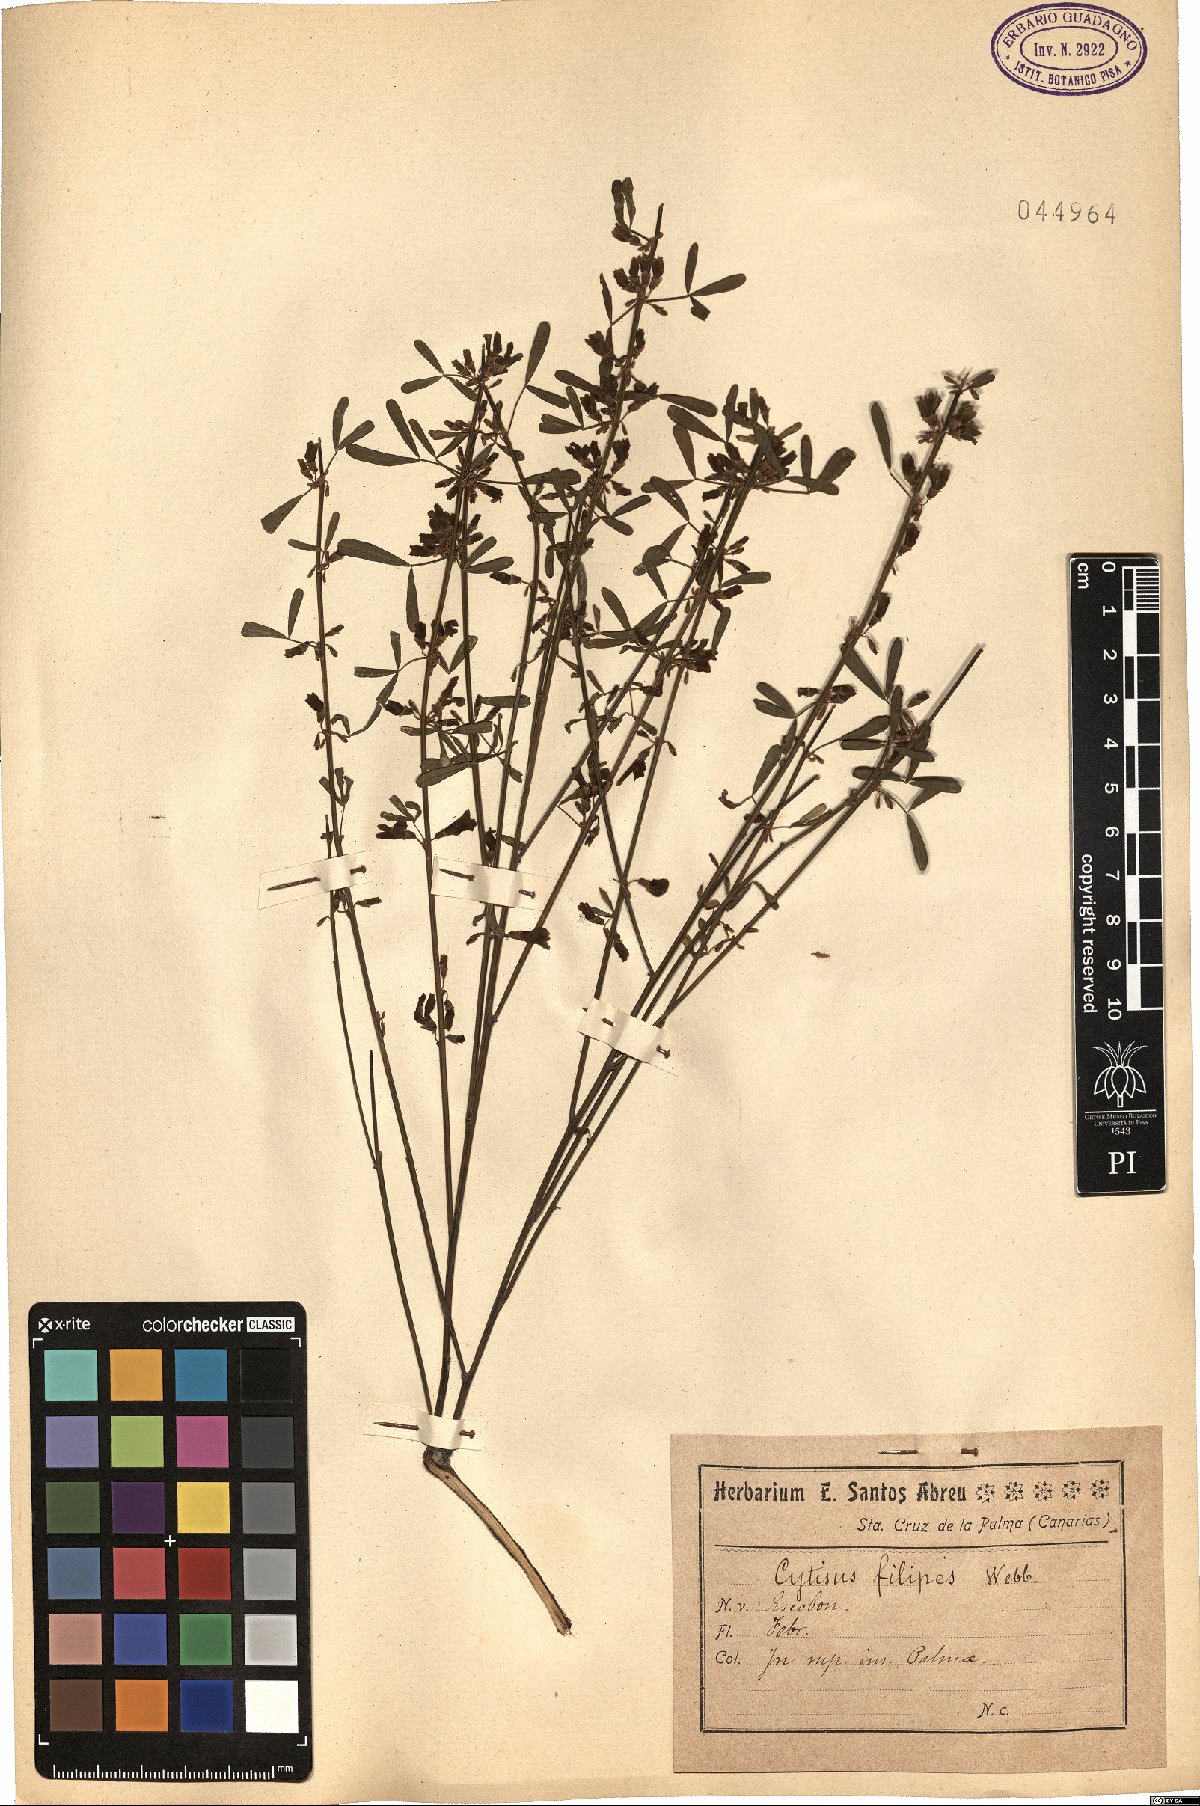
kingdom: Plantae
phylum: Tracheophyta
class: Magnoliopsida
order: Fabales
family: Fabaceae
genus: Cytisus
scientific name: Cytisus filipes
